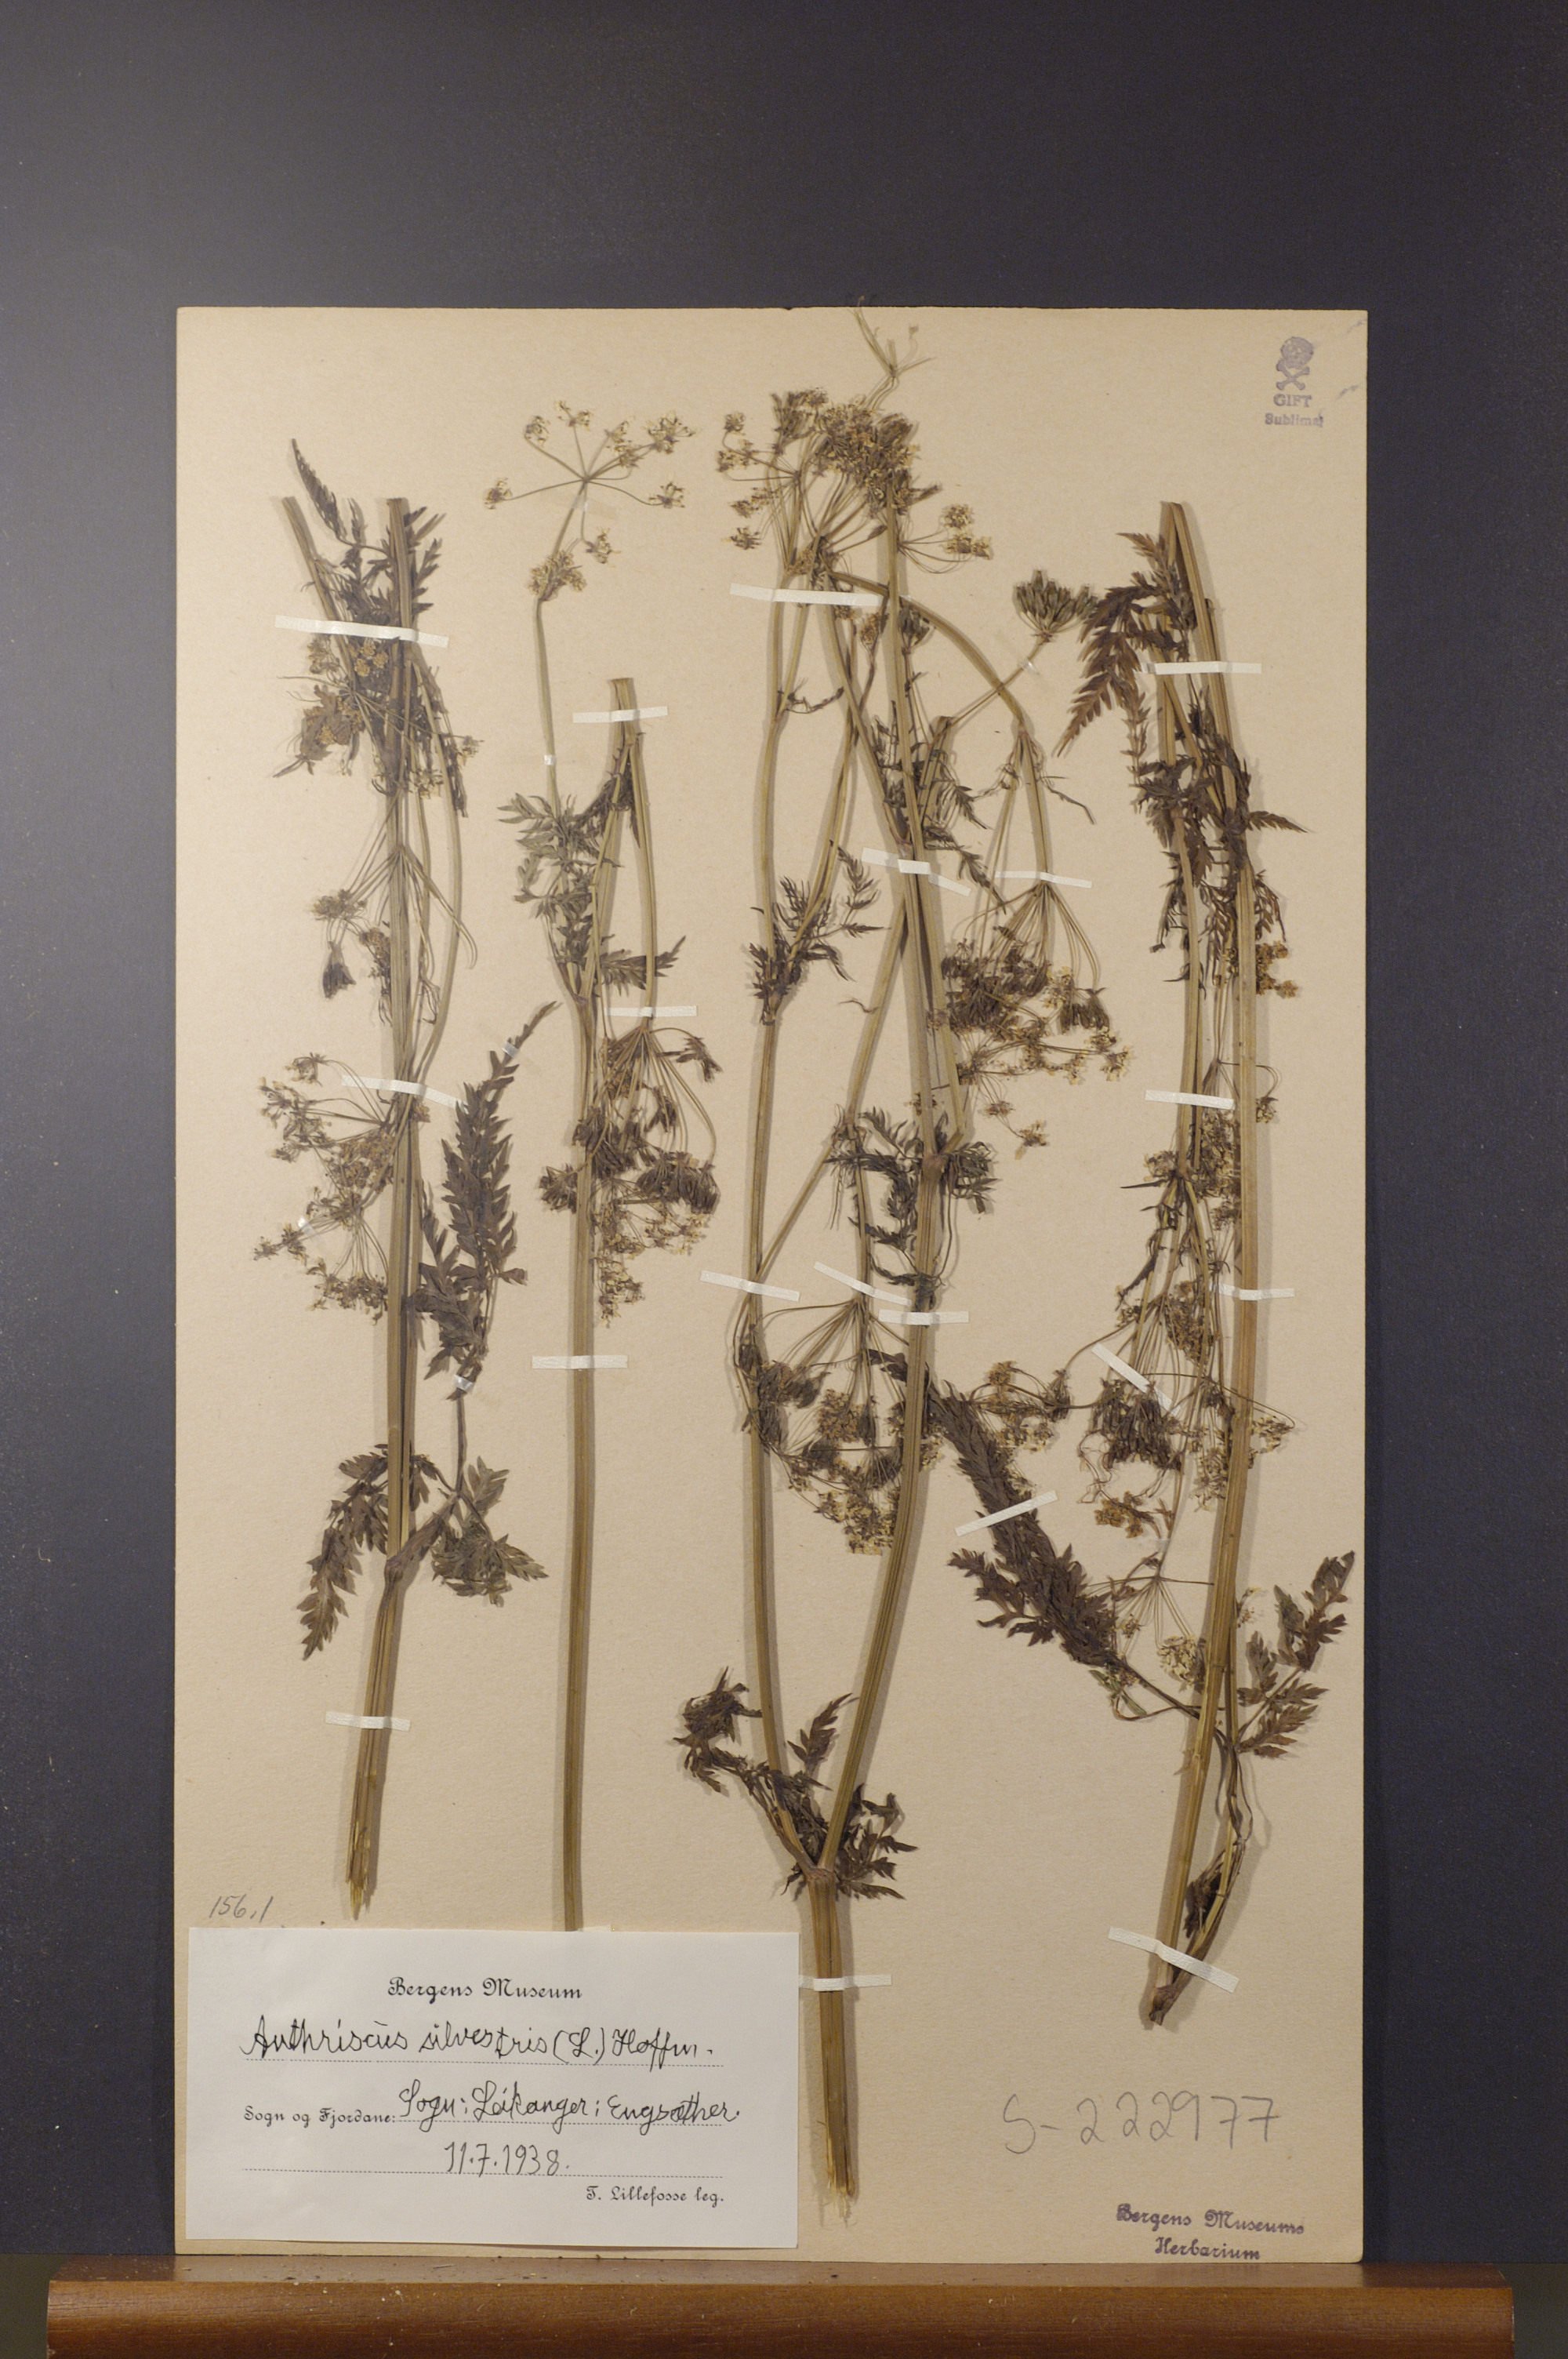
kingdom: Plantae
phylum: Tracheophyta
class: Magnoliopsida
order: Apiales
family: Apiaceae
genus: Anthriscus
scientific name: Anthriscus sylvestris
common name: Cow parsley
